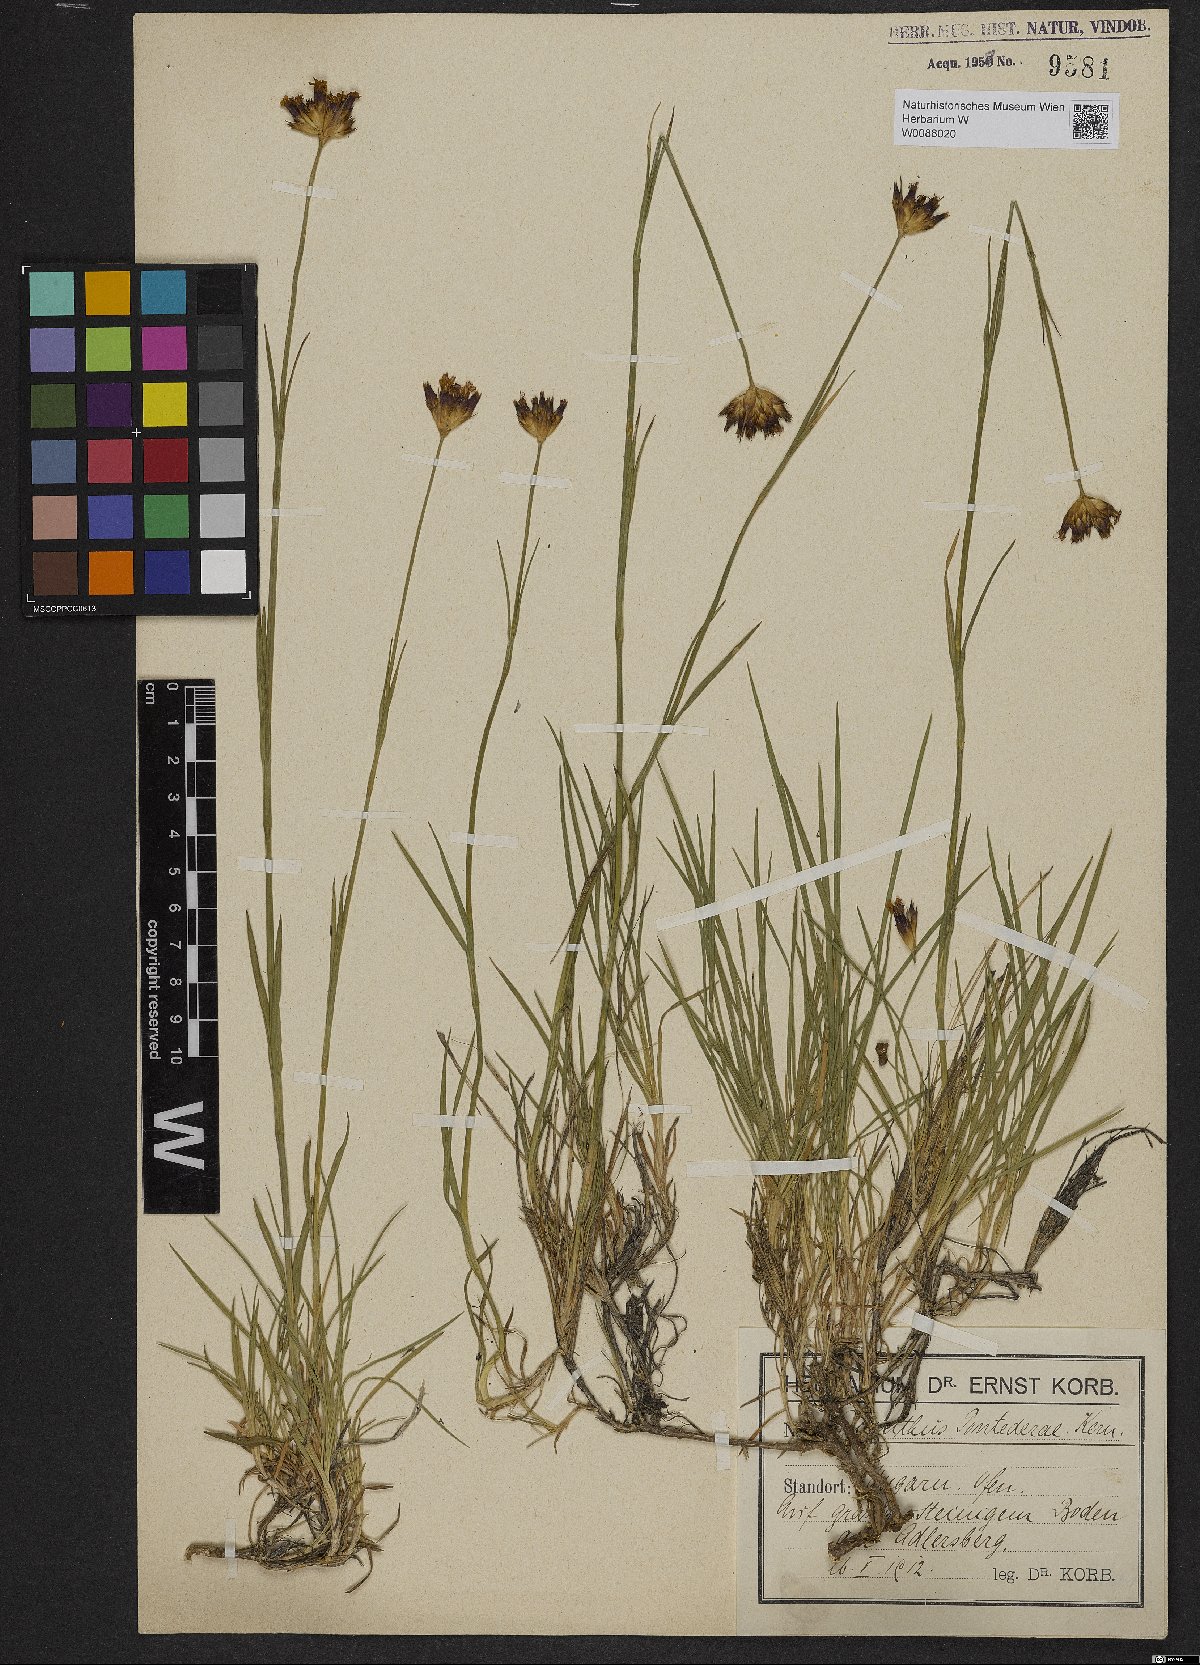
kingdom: Plantae
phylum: Tracheophyta
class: Magnoliopsida
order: Caryophyllales
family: Caryophyllaceae
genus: Dianthus
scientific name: Dianthus pontederae
